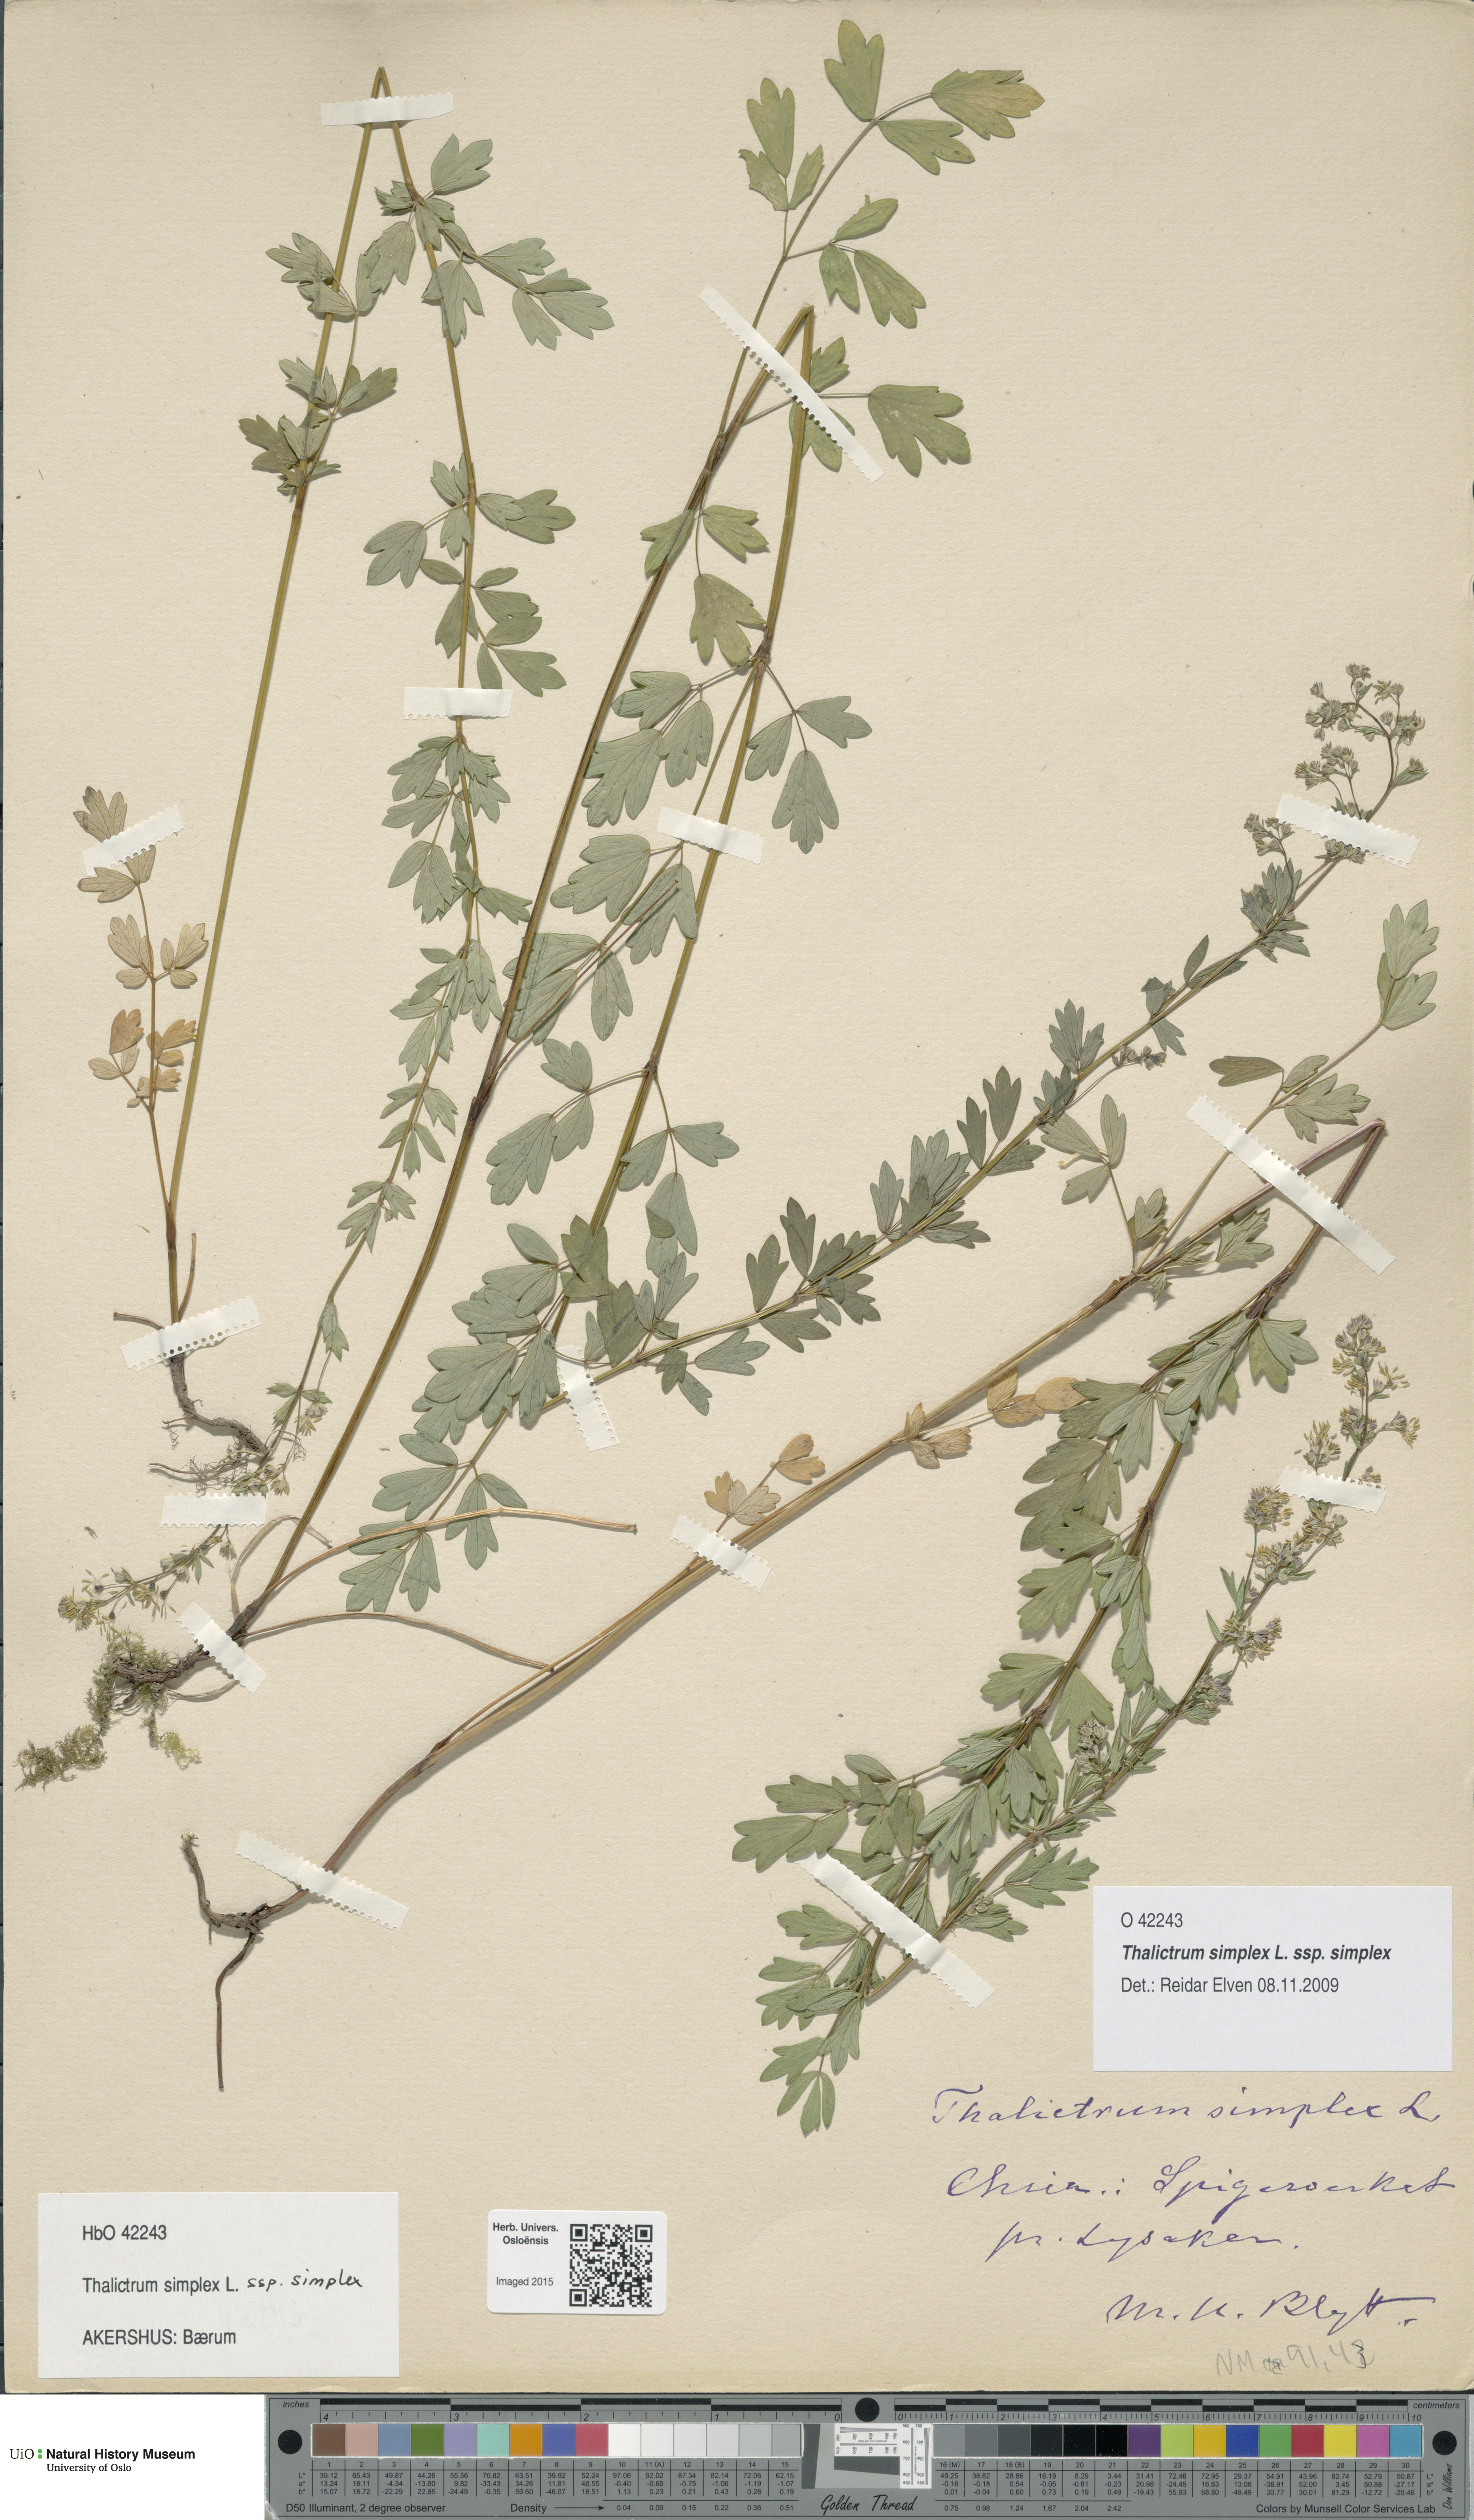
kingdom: Plantae
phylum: Tracheophyta
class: Magnoliopsida
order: Ranunculales
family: Ranunculaceae
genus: Thalictrum
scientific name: Thalictrum simplex
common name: Small meadow-rue
